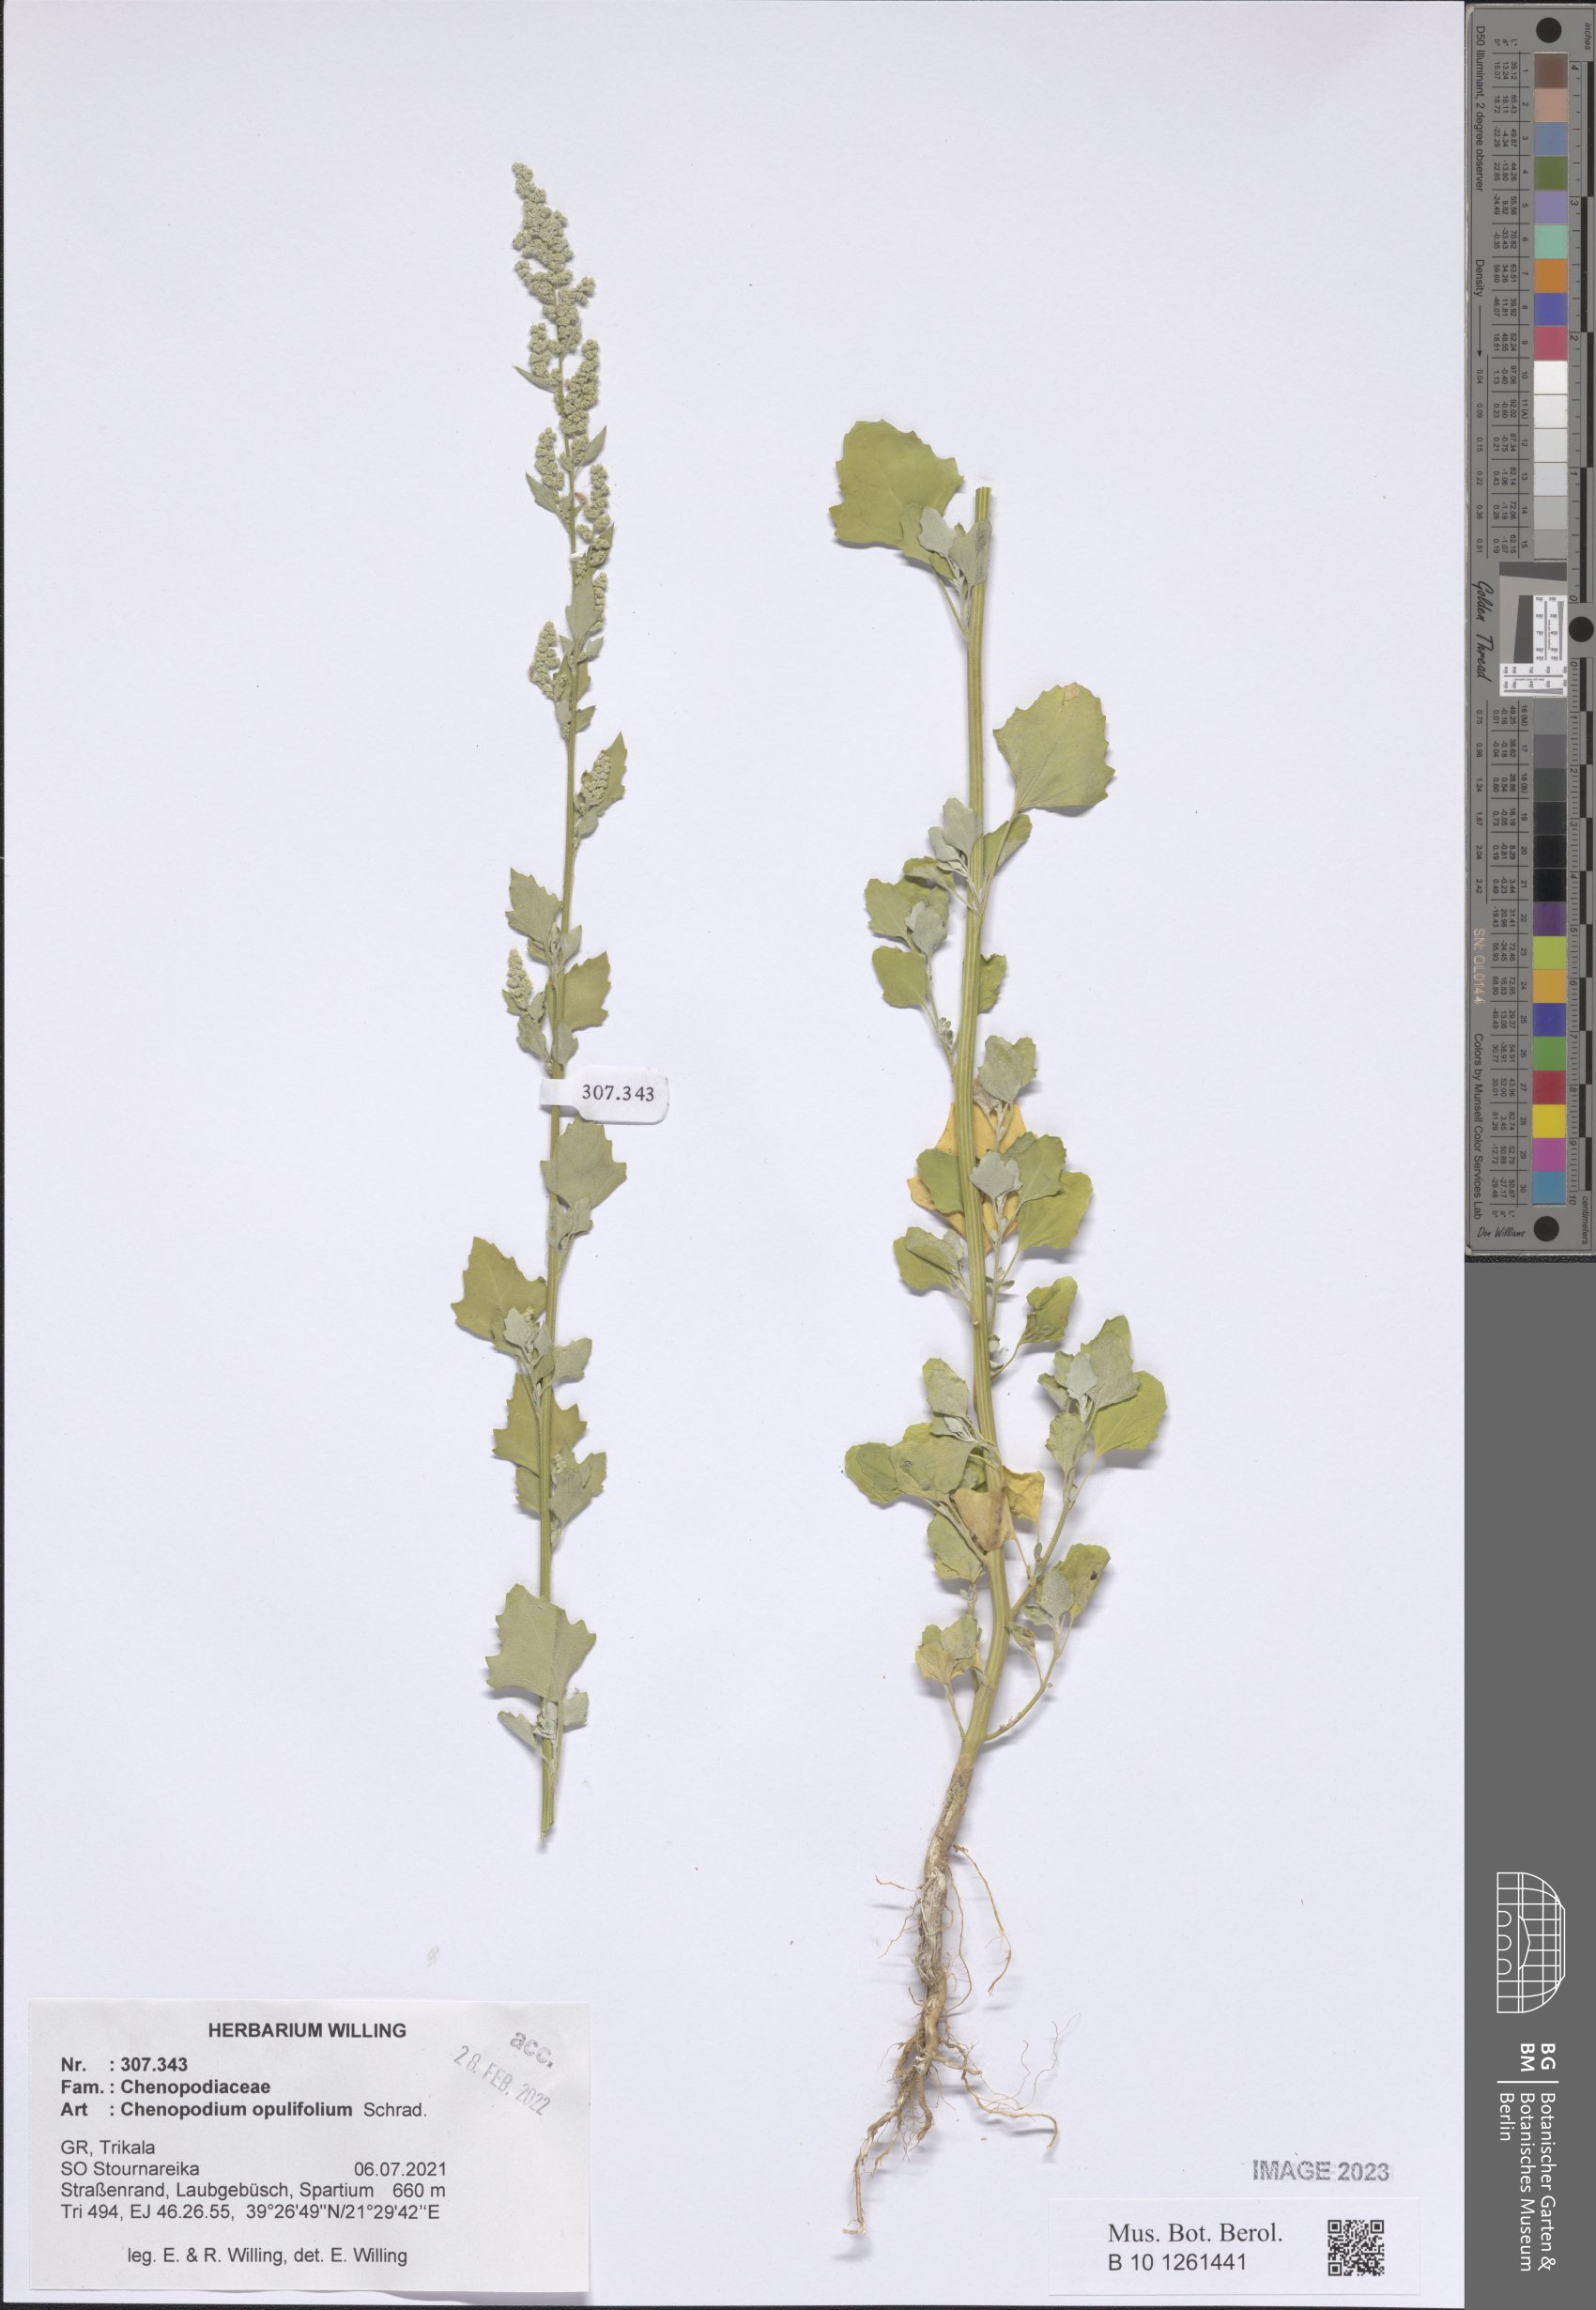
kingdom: Plantae
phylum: Tracheophyta
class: Magnoliopsida
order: Caryophyllales
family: Amaranthaceae
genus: Chenopodium
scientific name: Chenopodium opulifolium
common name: Grey goosefoot
